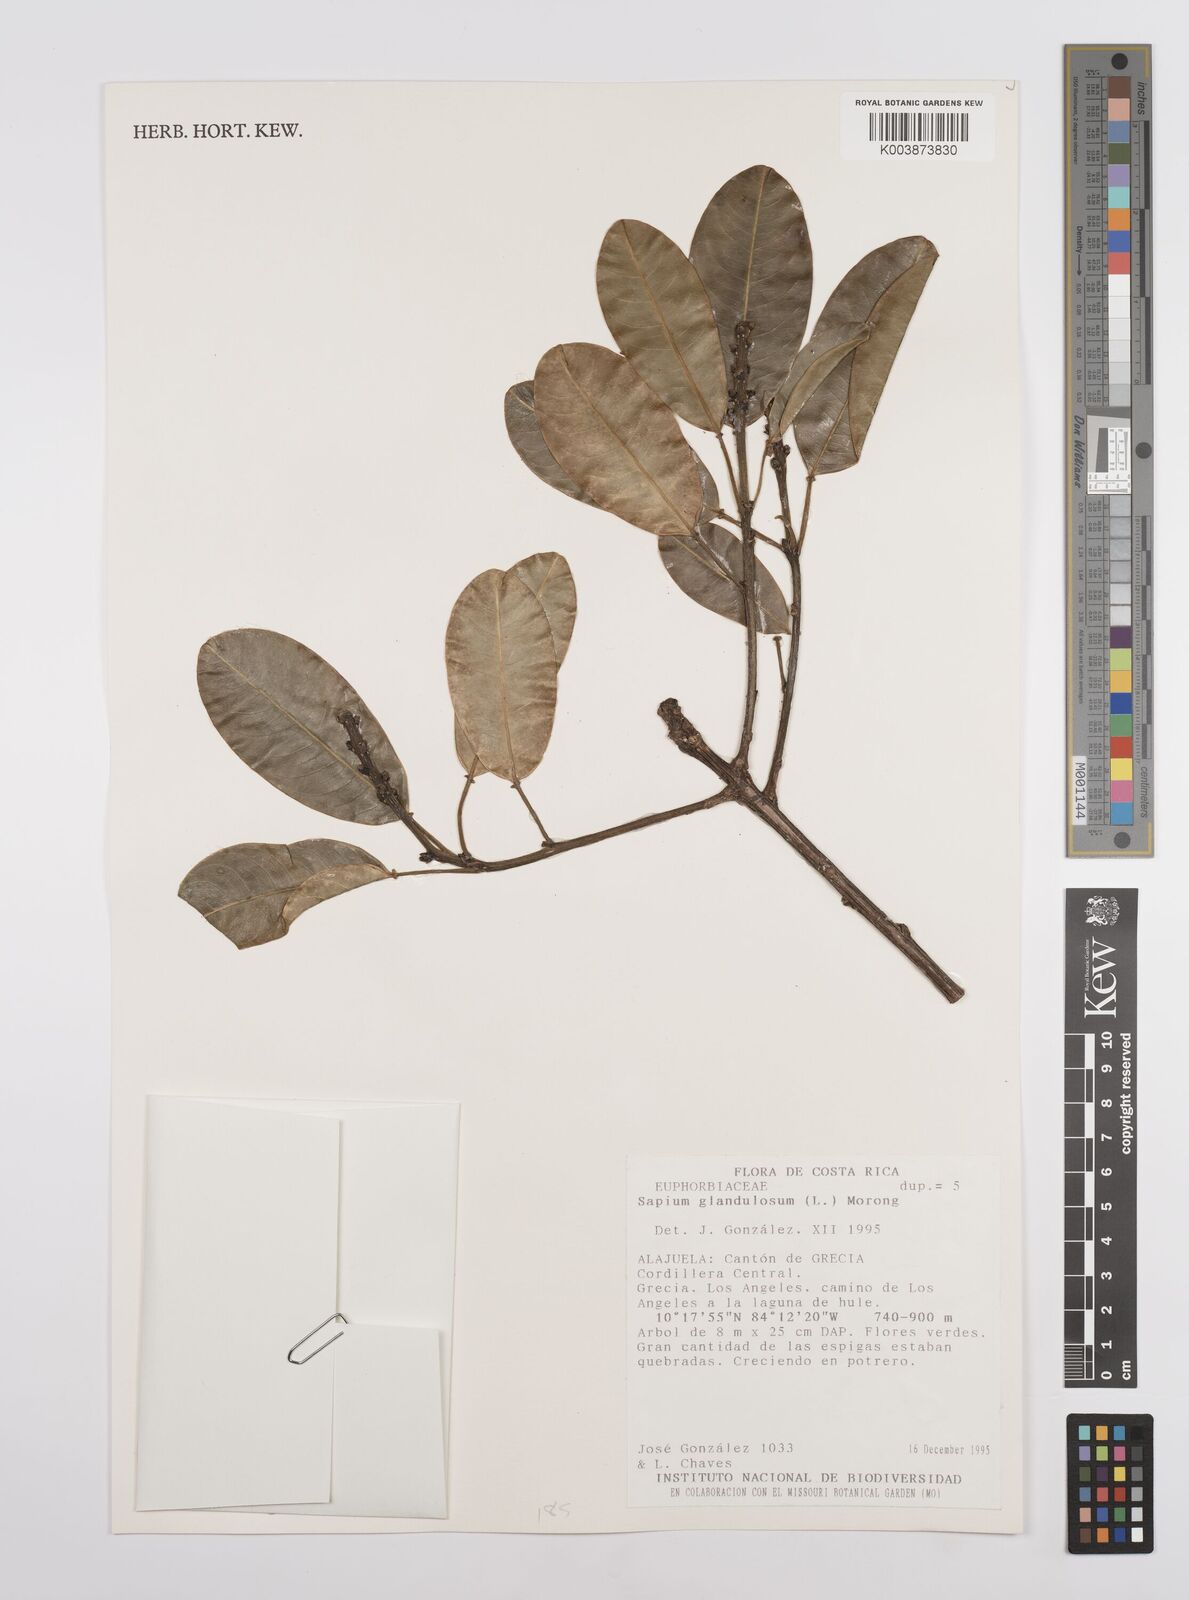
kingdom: Plantae
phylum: Tracheophyta
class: Magnoliopsida
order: Malpighiales
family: Euphorbiaceae
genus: Sapium
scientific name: Sapium glandulosum
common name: Milktree
